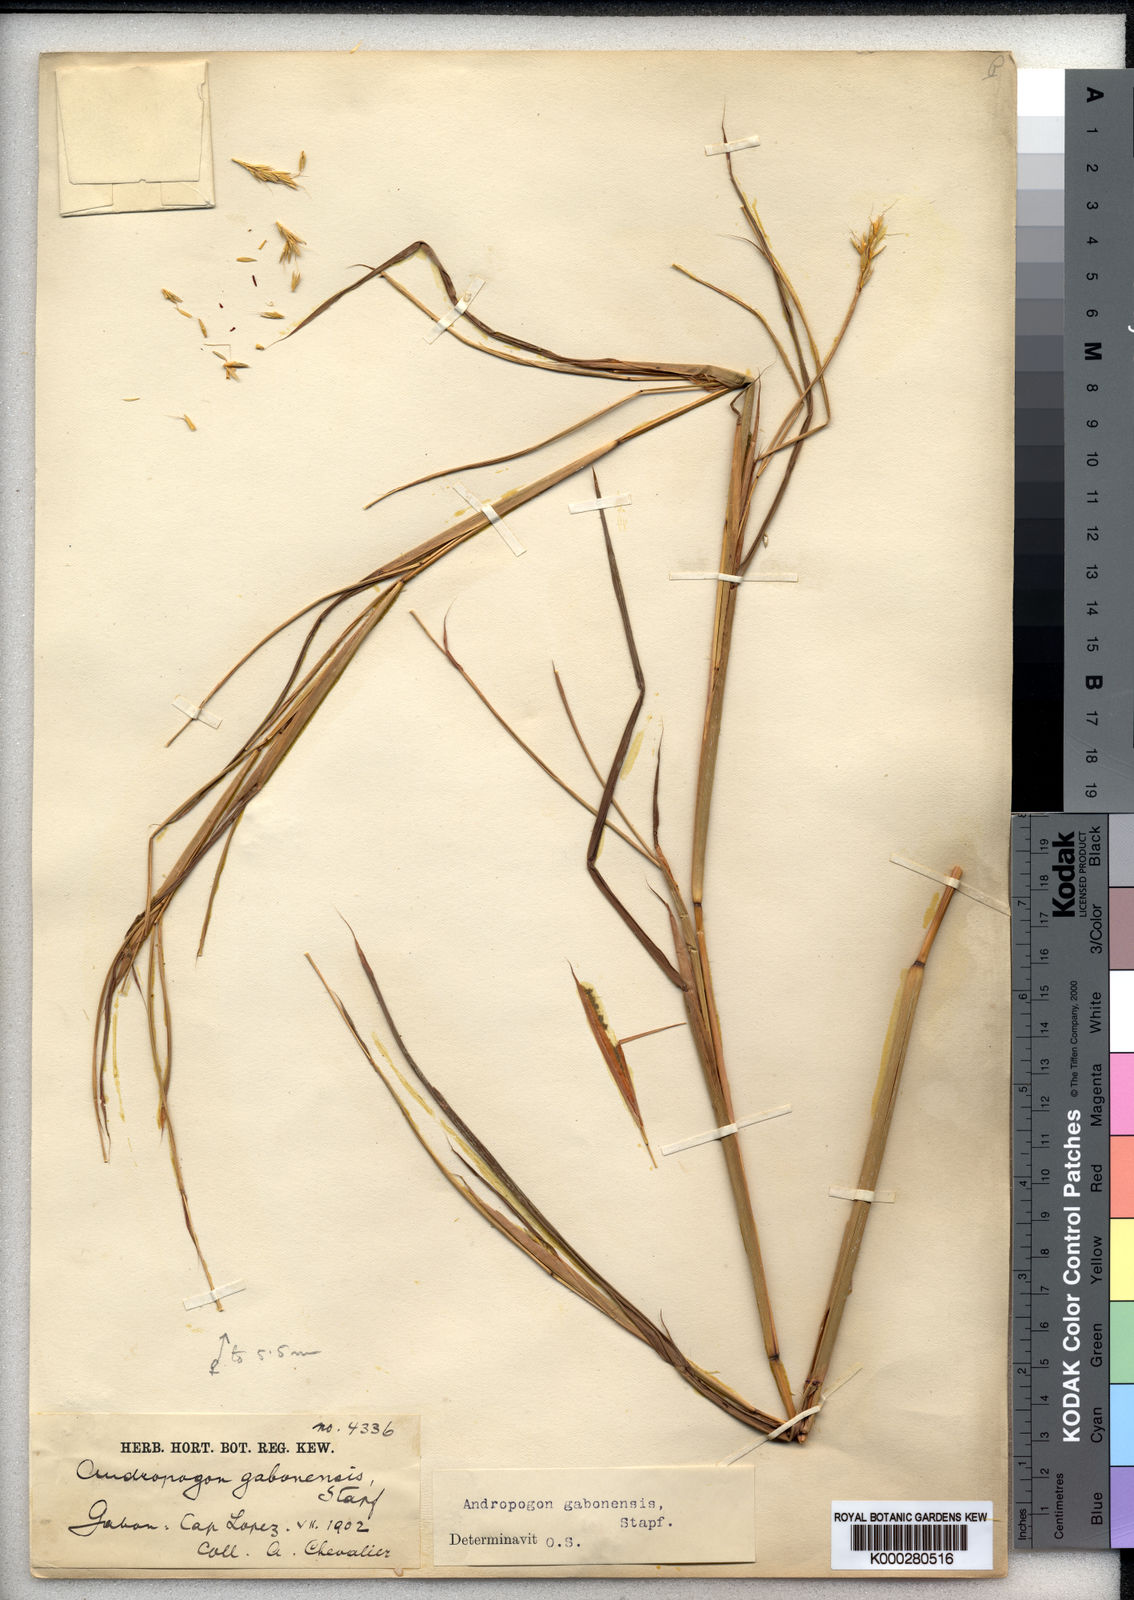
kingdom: Plantae
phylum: Tracheophyta
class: Liliopsida
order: Poales
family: Poaceae
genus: Andropogon
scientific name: Andropogon gabonensis
